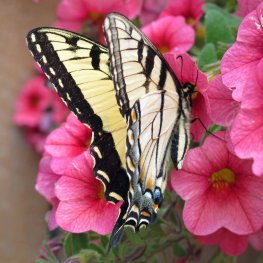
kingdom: Animalia
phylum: Arthropoda
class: Insecta
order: Lepidoptera
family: Papilionidae
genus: Pterourus
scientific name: Pterourus glaucus
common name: Eastern Tiger Swallowtail
